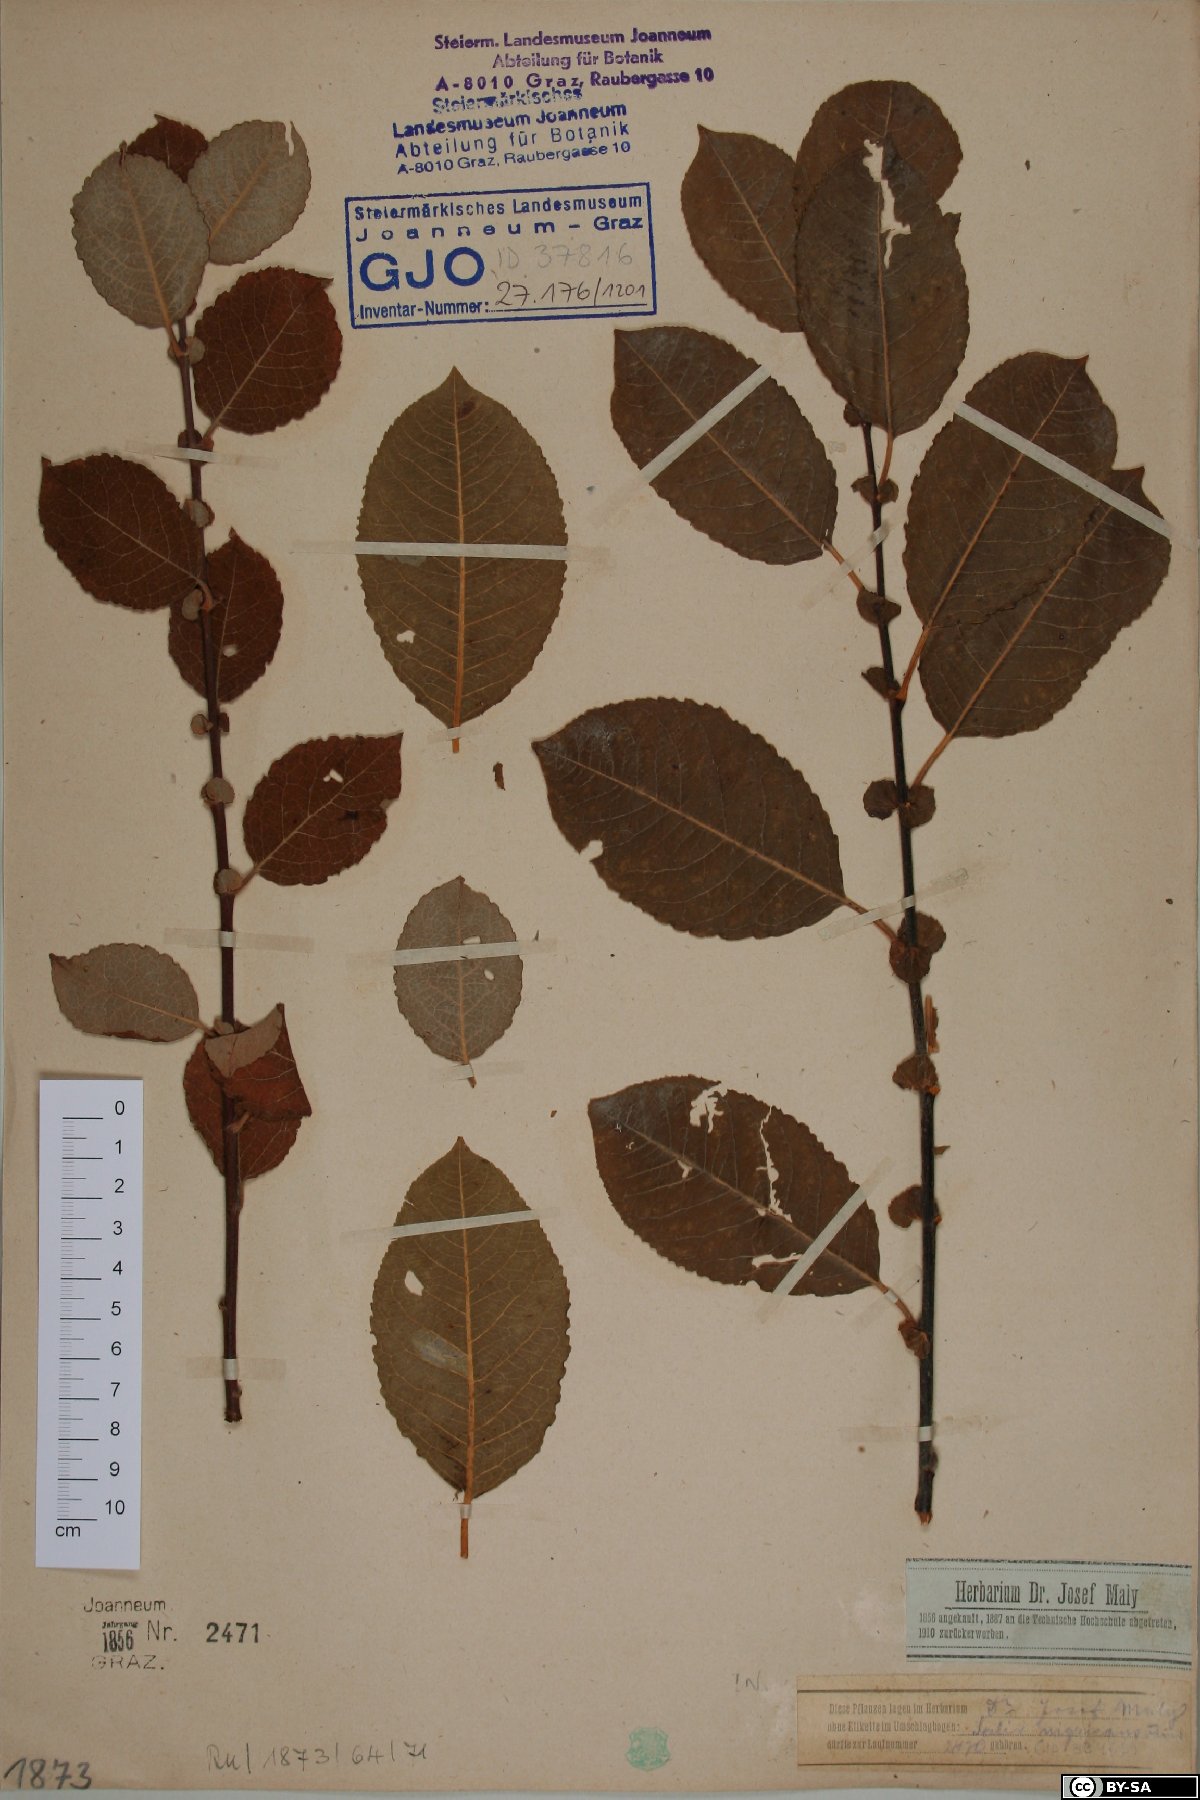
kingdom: Plantae
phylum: Tracheophyta
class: Magnoliopsida
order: Malpighiales
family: Salicaceae
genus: Salix
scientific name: Salix myrsinifolia
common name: Dark-leaved willow
